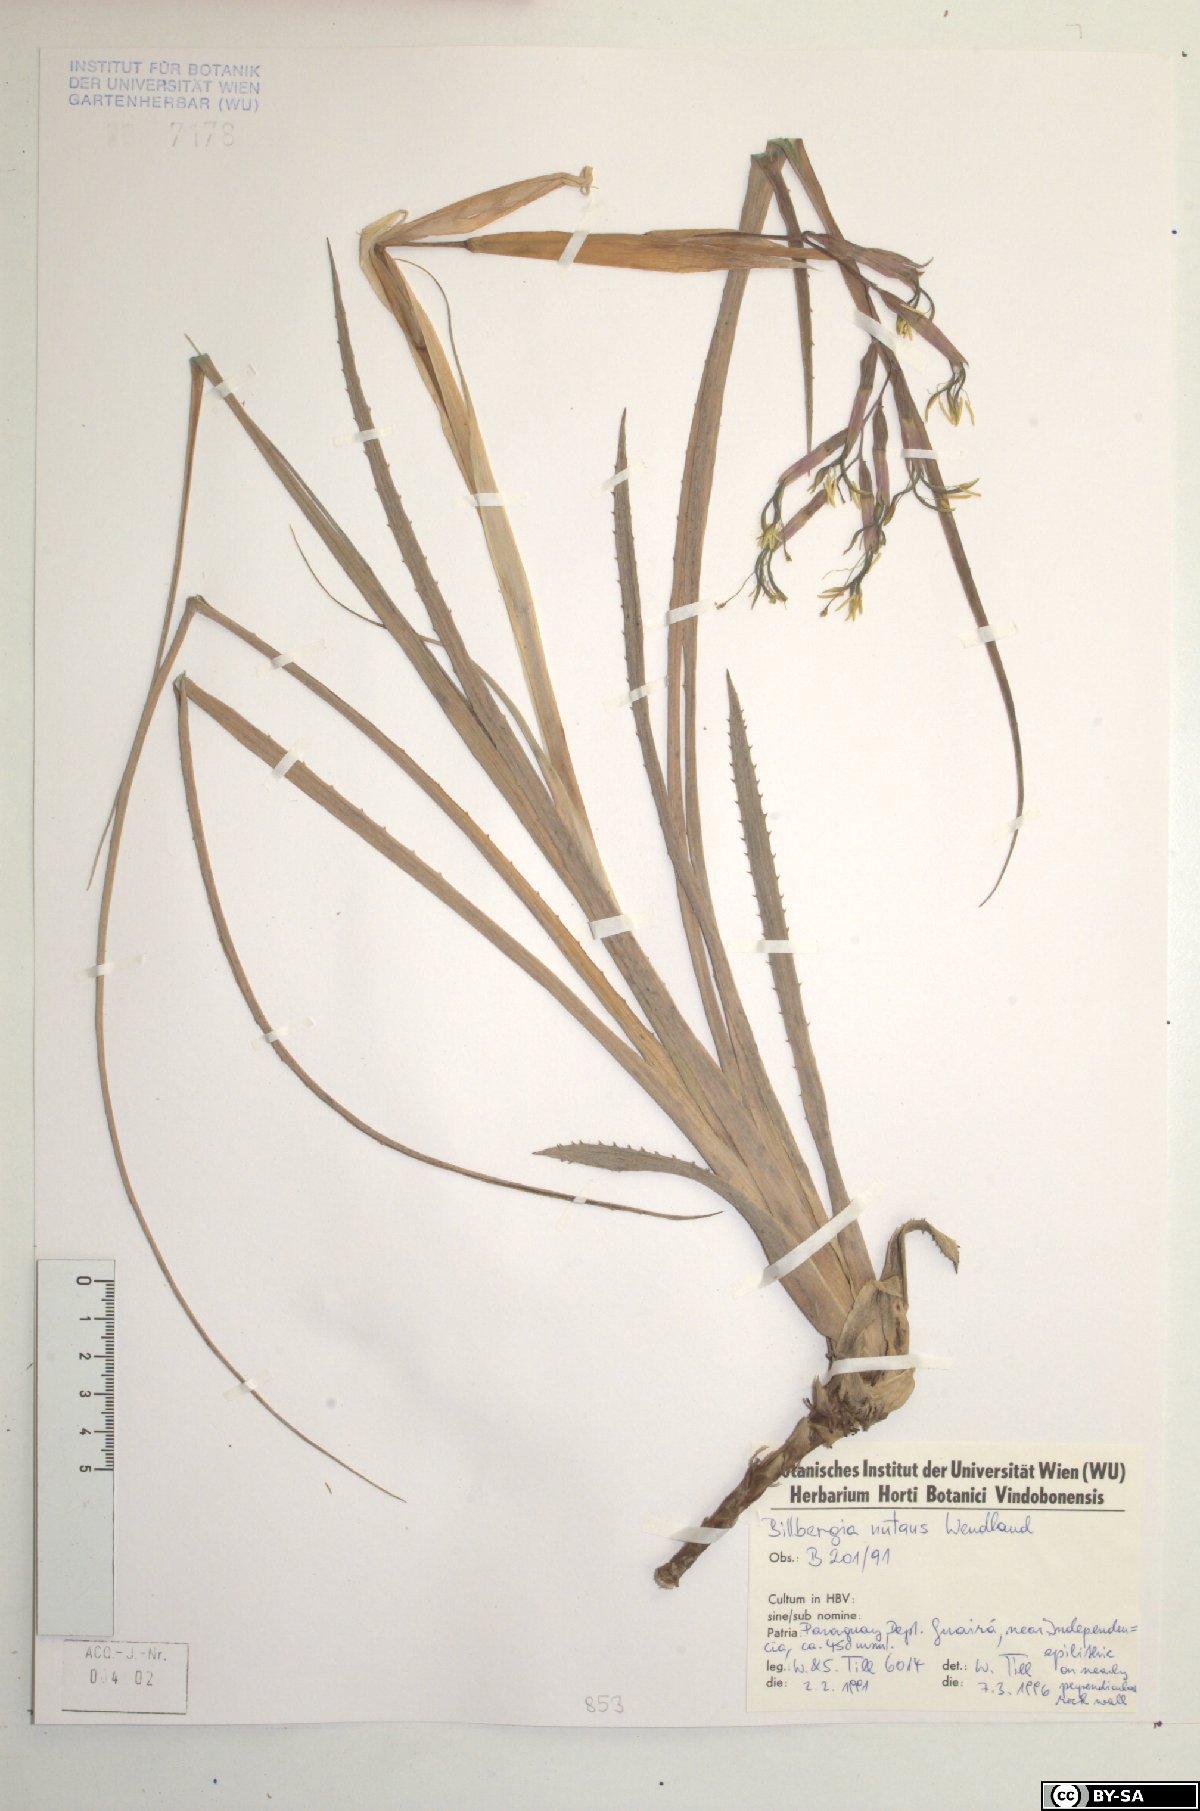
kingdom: Plantae
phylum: Tracheophyta
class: Liliopsida
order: Poales
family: Bromeliaceae
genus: Billbergia
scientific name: Billbergia nutans
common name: Friendship-plant
